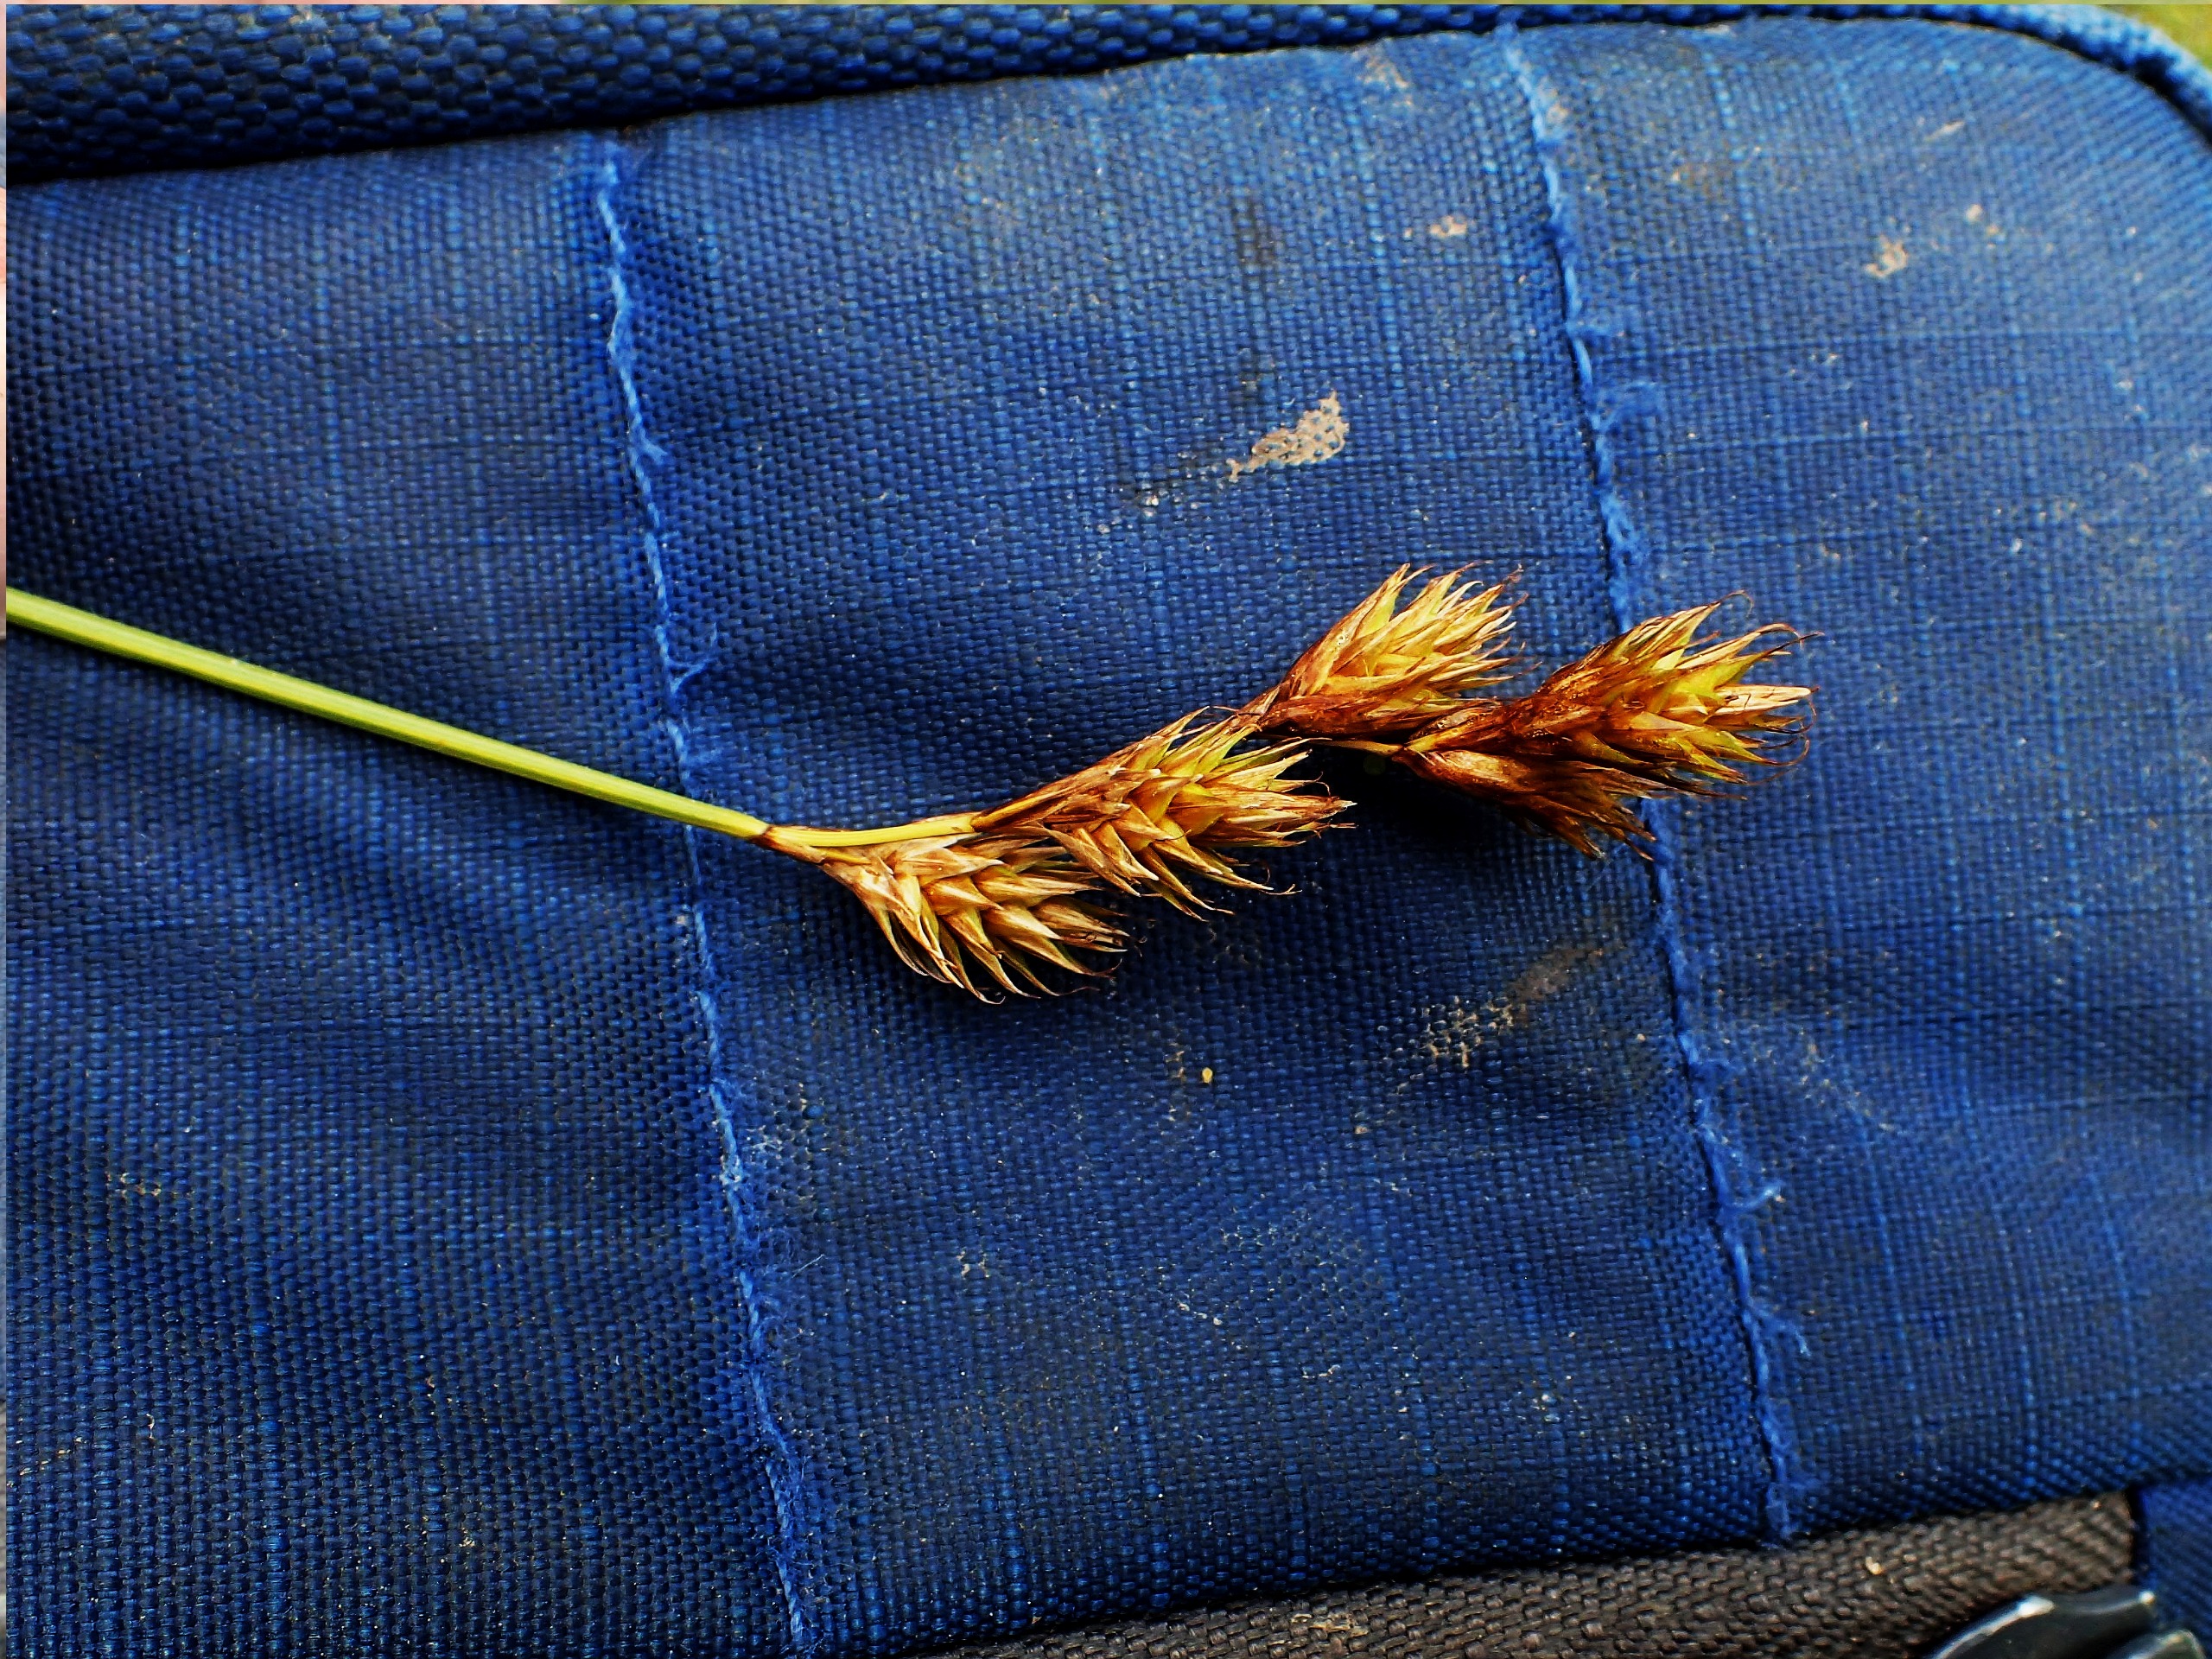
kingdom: Plantae
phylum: Tracheophyta
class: Liliopsida
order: Poales
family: Cyperaceae
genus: Carex
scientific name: Carex leporina
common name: Hare-star
